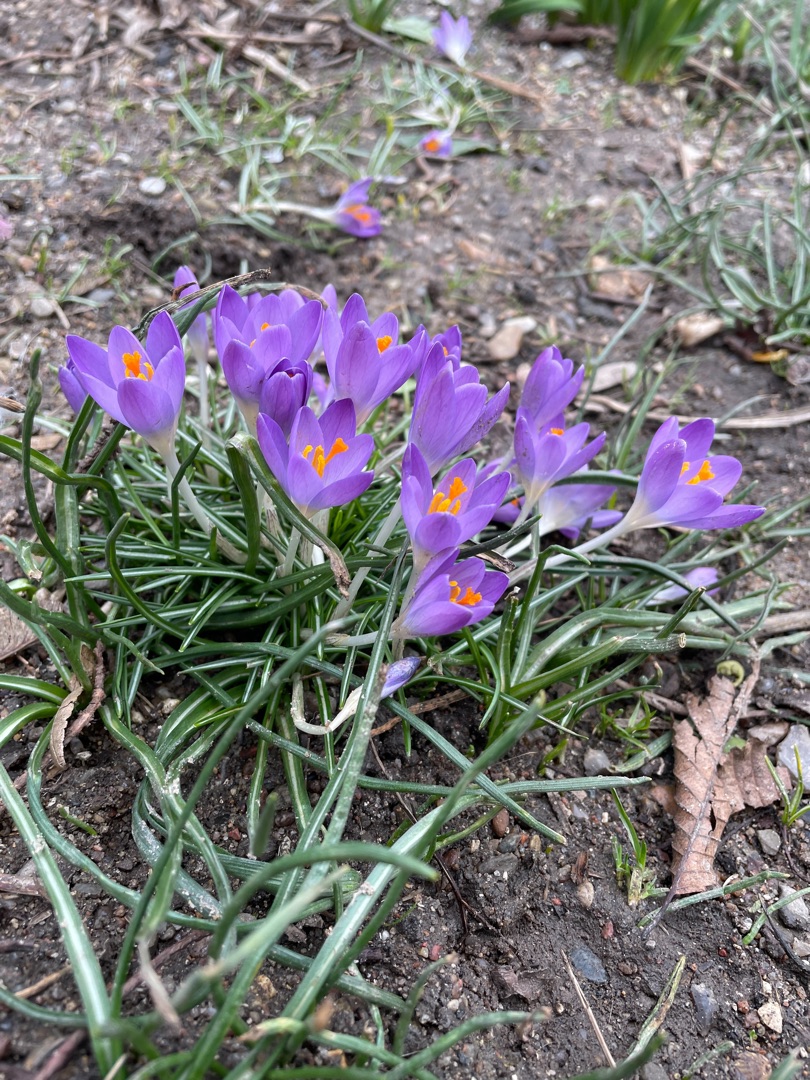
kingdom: Plantae
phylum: Tracheophyta
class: Liliopsida
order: Asparagales
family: Iridaceae
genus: Crocus
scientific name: Crocus tommasinianus
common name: Sne-krokus
